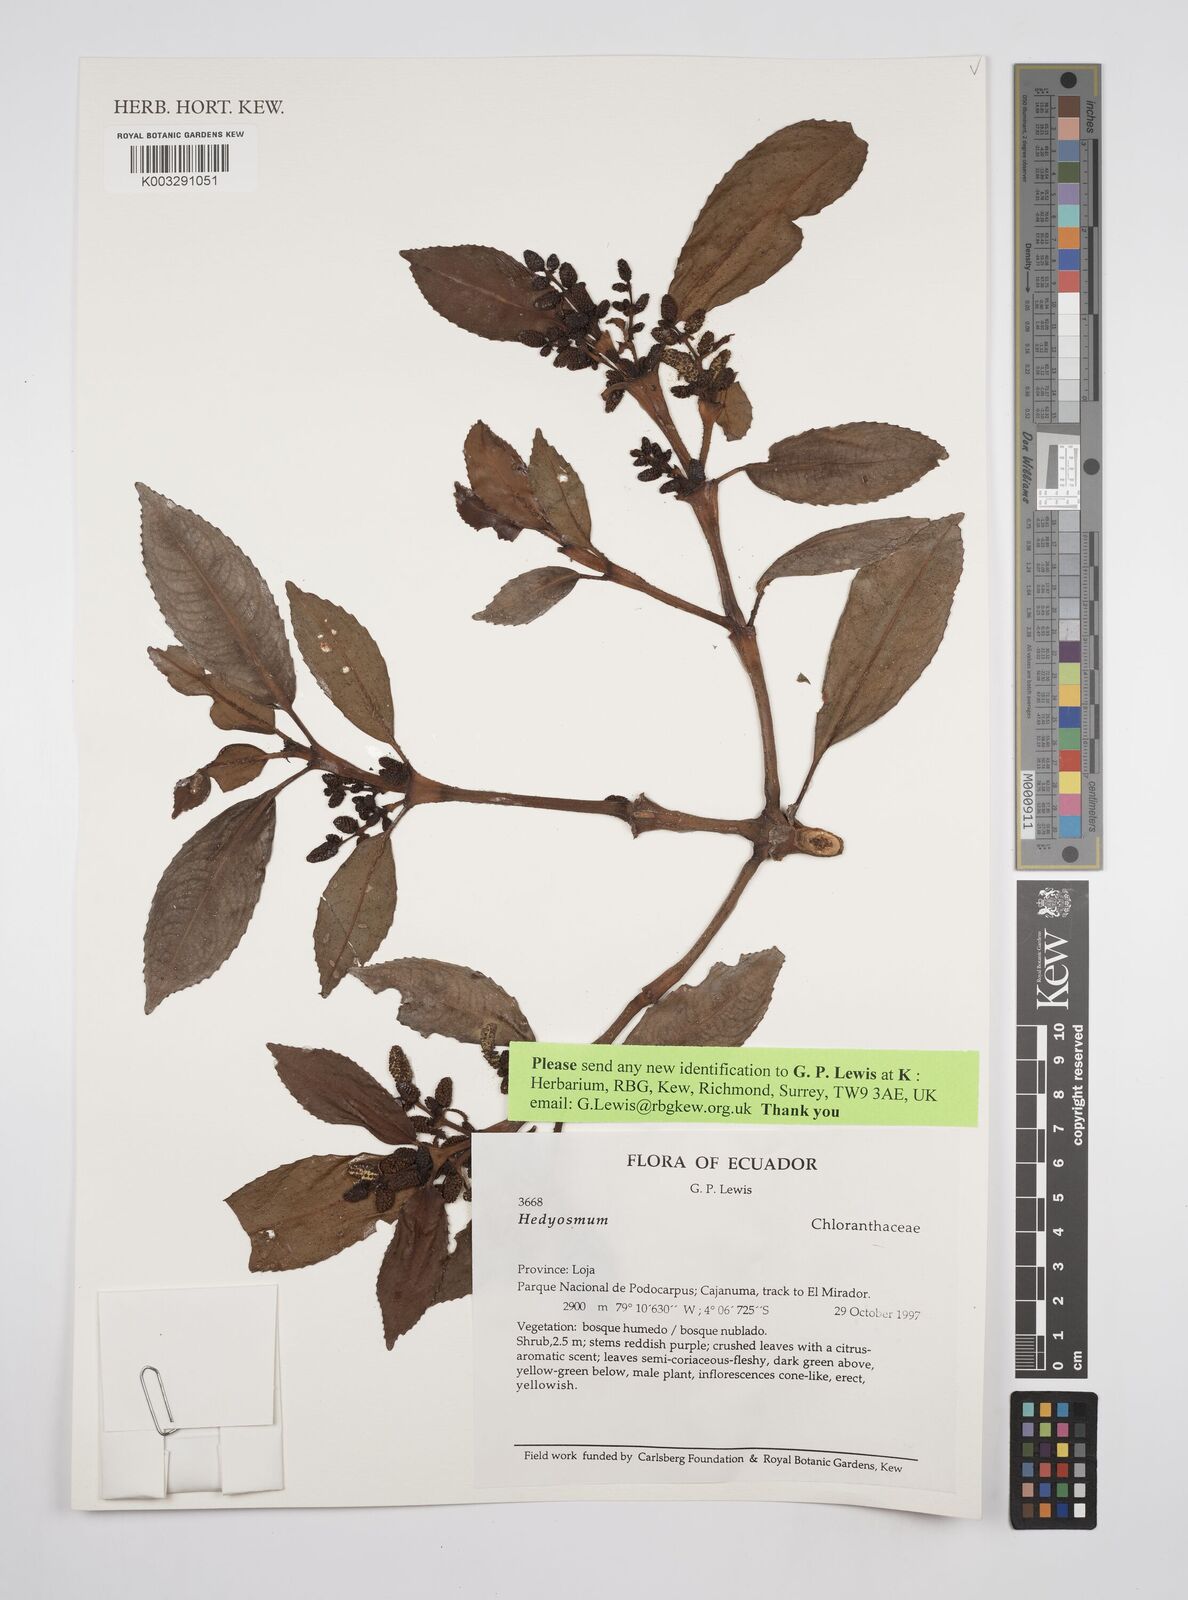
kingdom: Plantae
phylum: Tracheophyta
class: Magnoliopsida
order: Chloranthales
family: Chloranthaceae
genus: Hedyosmum
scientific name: Hedyosmum
